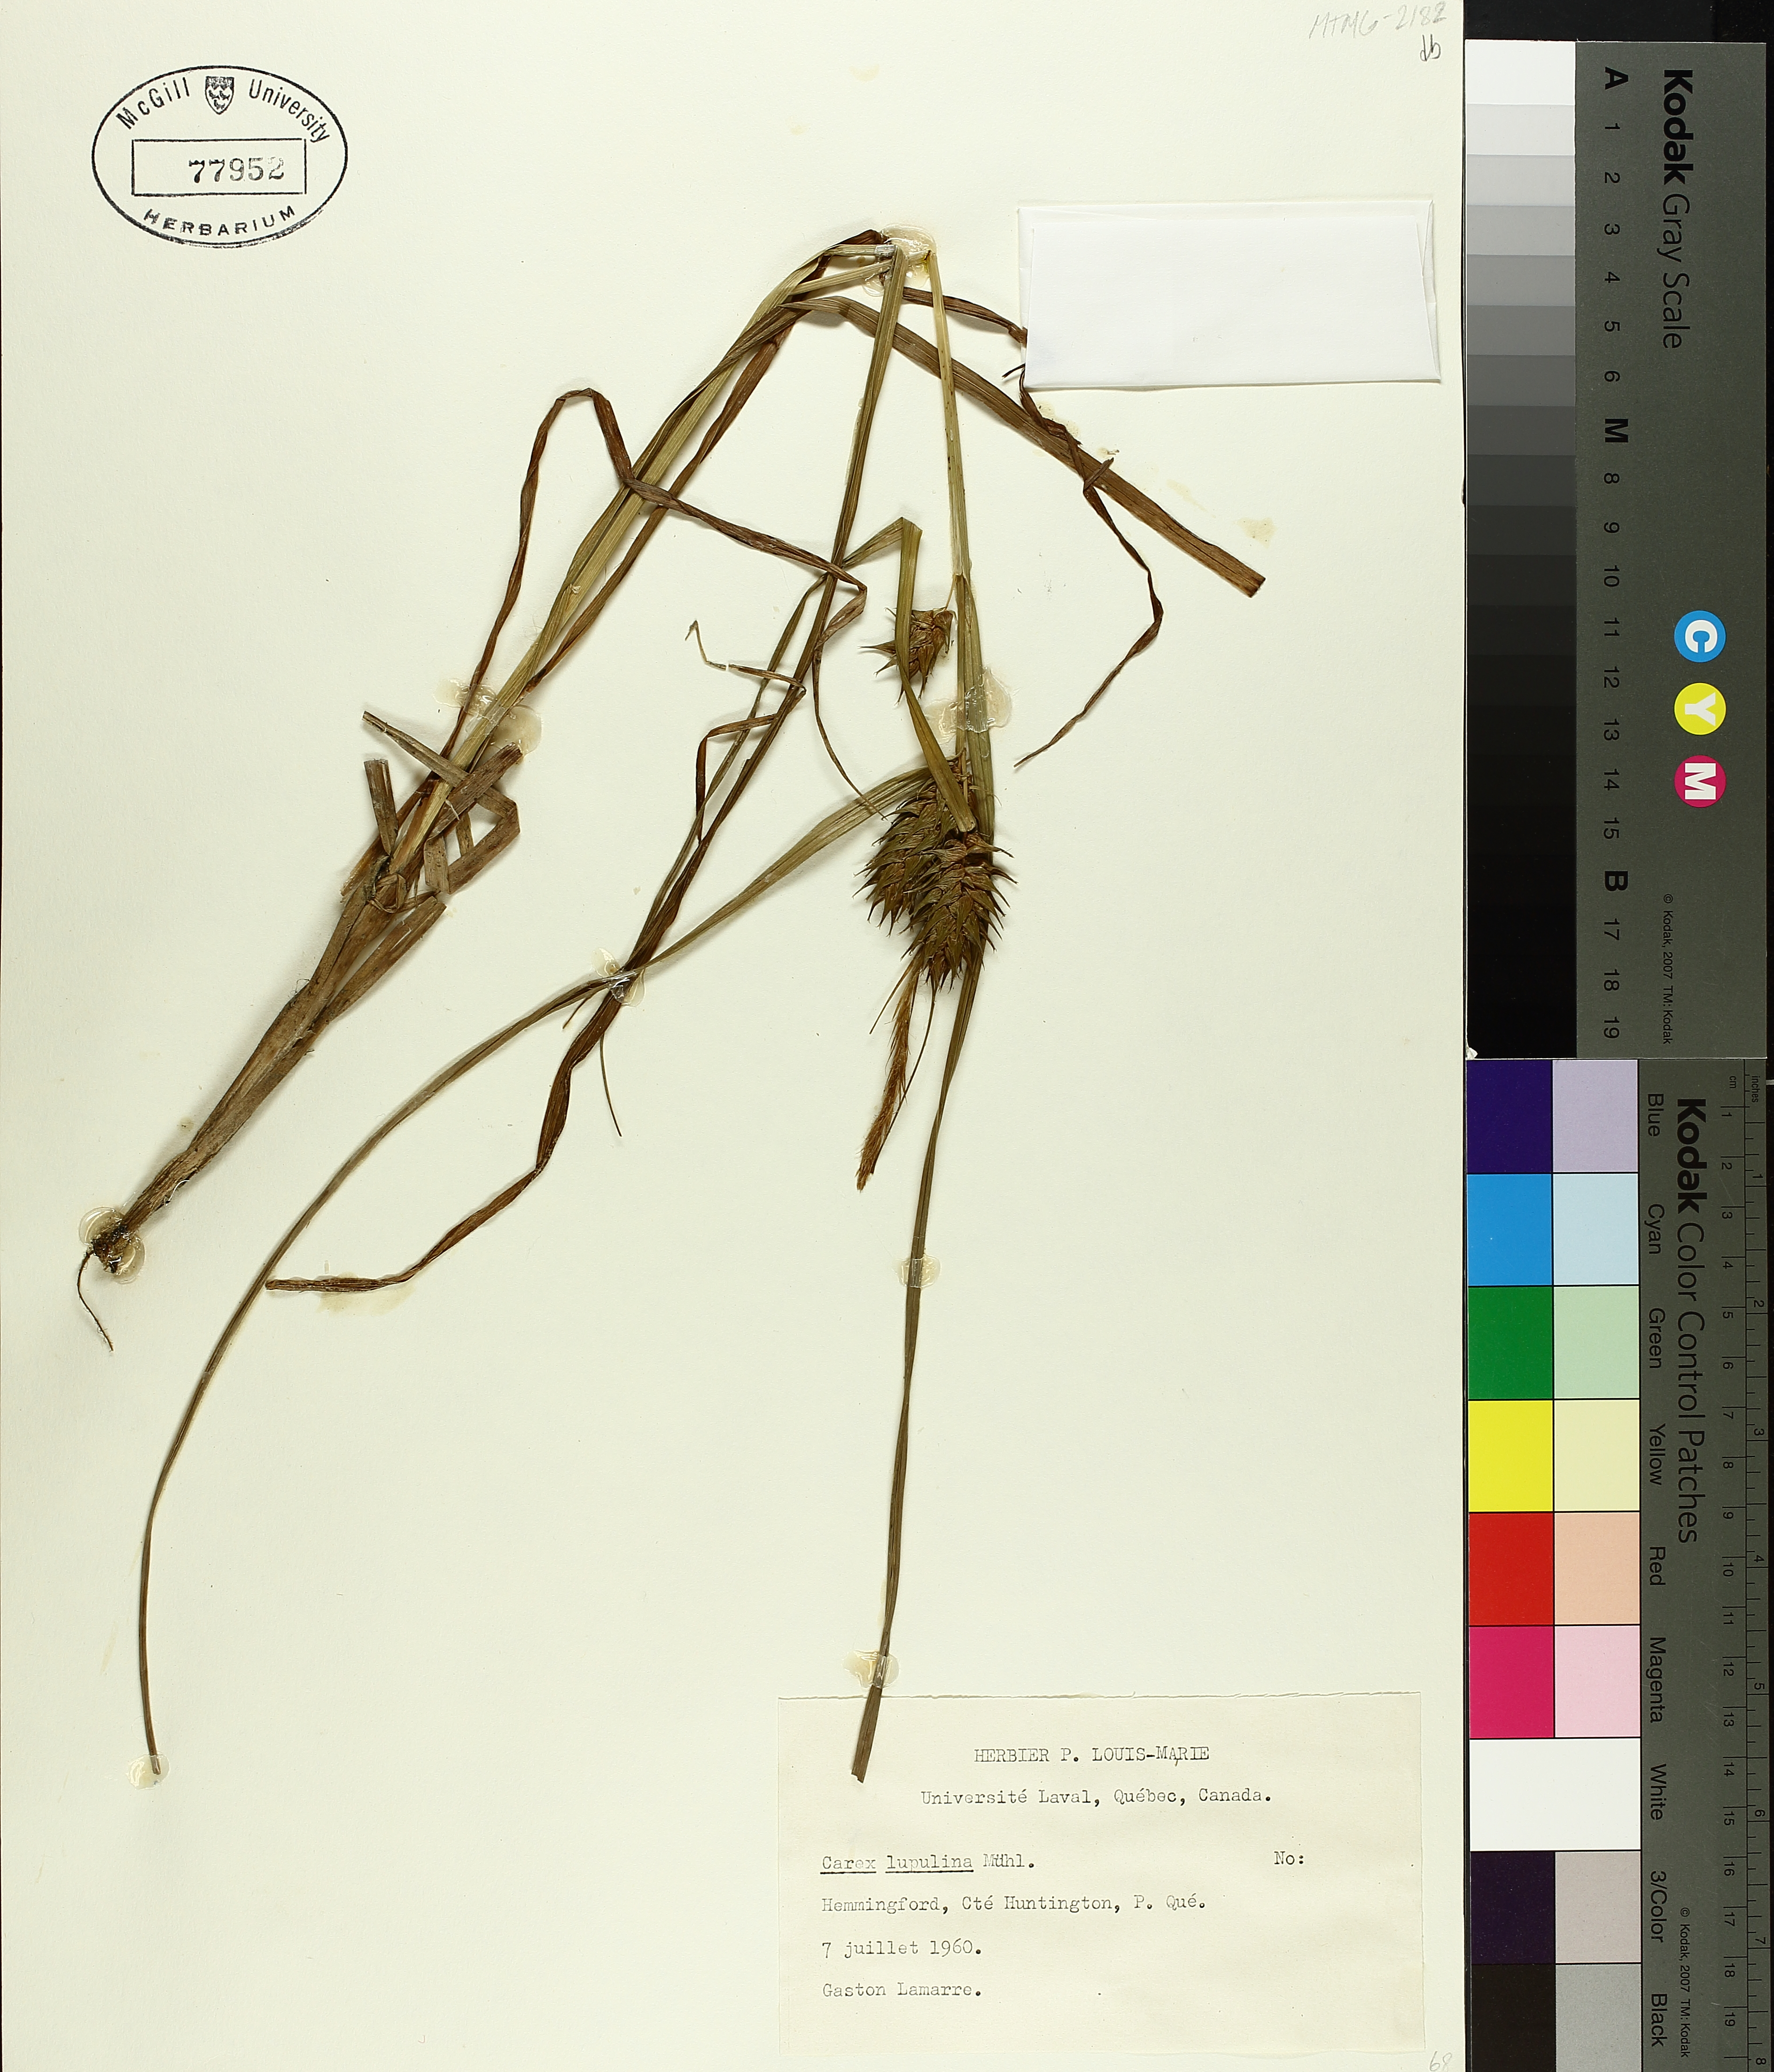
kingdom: Plantae
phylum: Tracheophyta
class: Liliopsida
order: Poales
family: Cyperaceae
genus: Carex
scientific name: Carex lupulina
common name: Hop sedge
